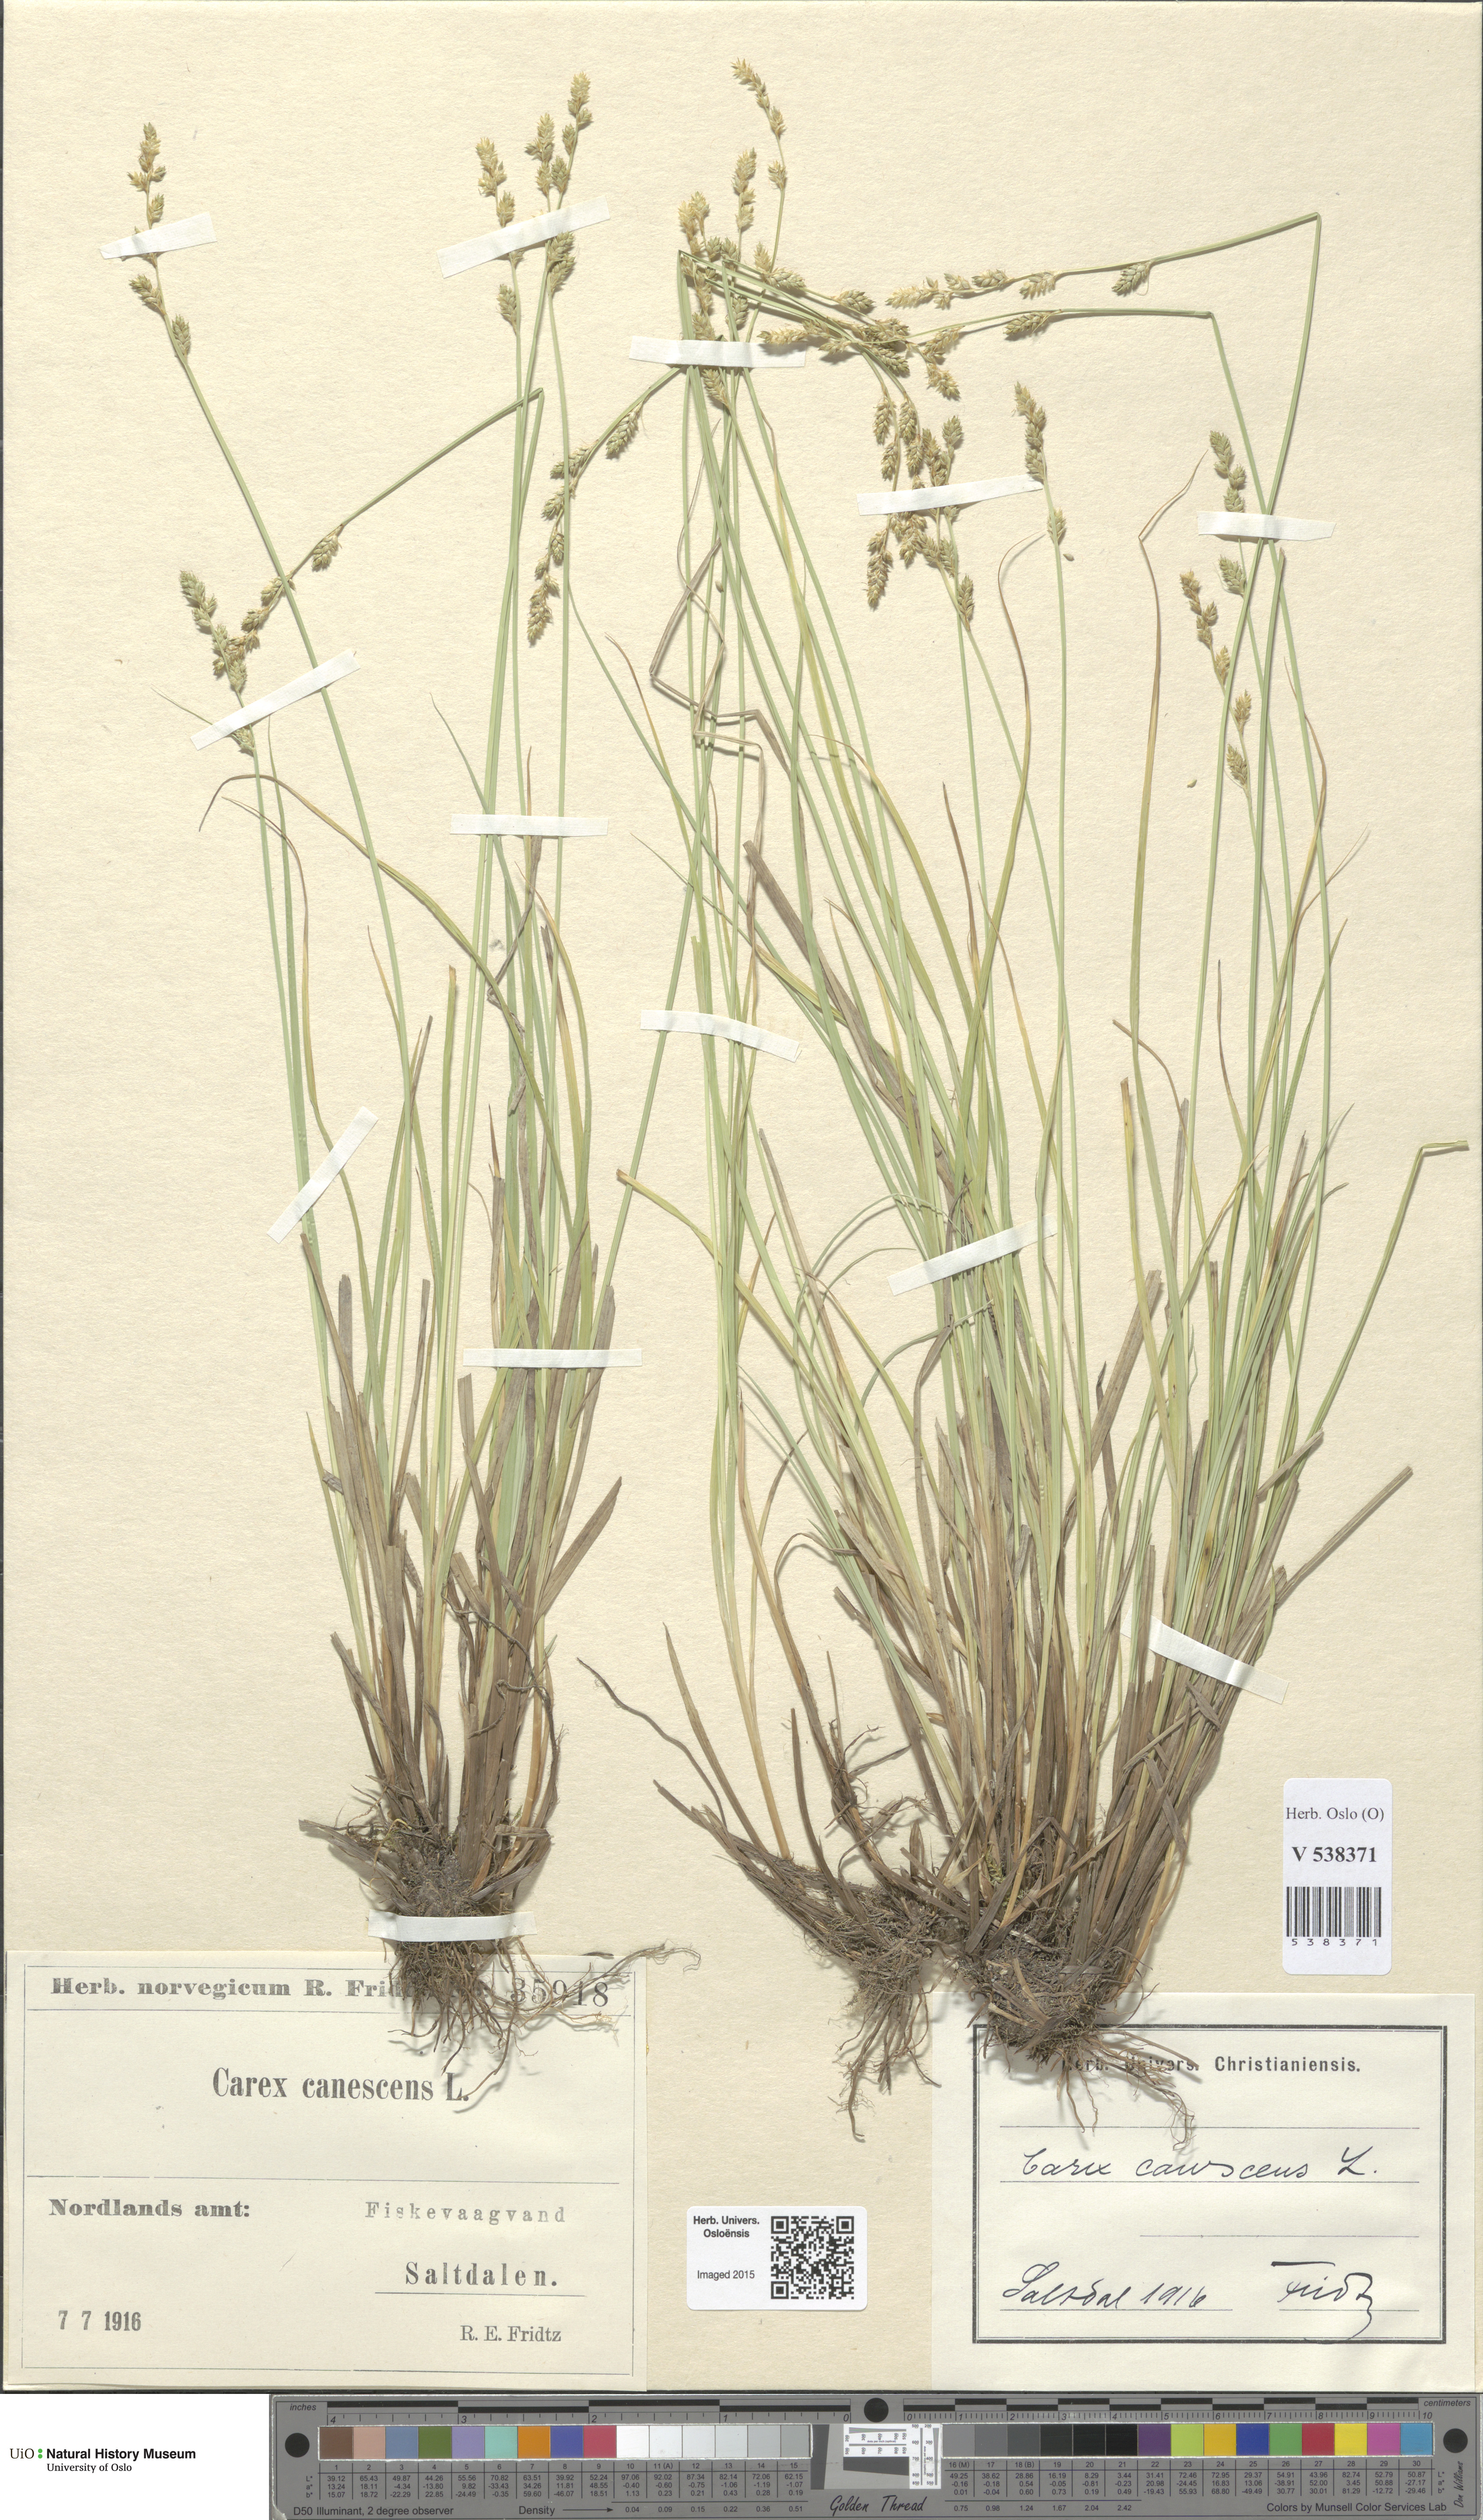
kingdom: Plantae
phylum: Tracheophyta
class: Liliopsida
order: Poales
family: Cyperaceae
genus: Carex
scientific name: Carex canescens
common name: White sedge
